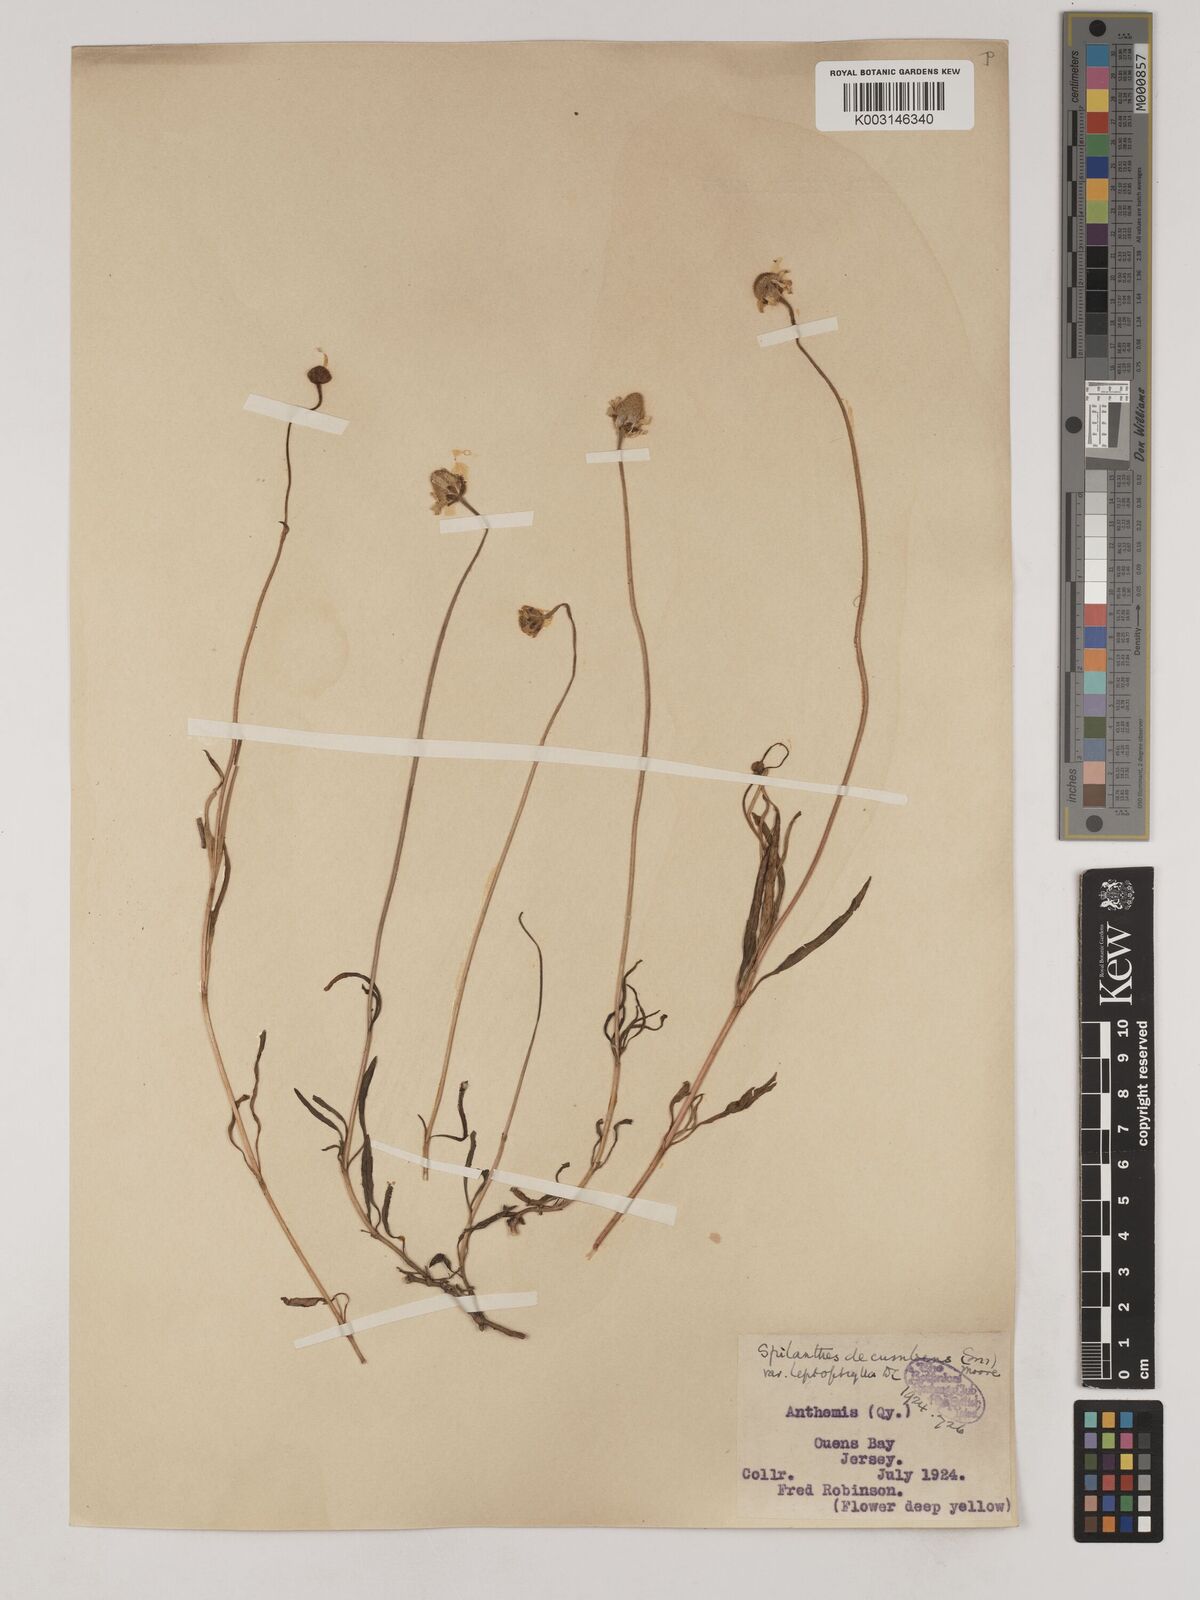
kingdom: Plantae
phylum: Tracheophyta
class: Magnoliopsida
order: Asterales
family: Asteraceae
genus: Acmella
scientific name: Acmella leptophylla
